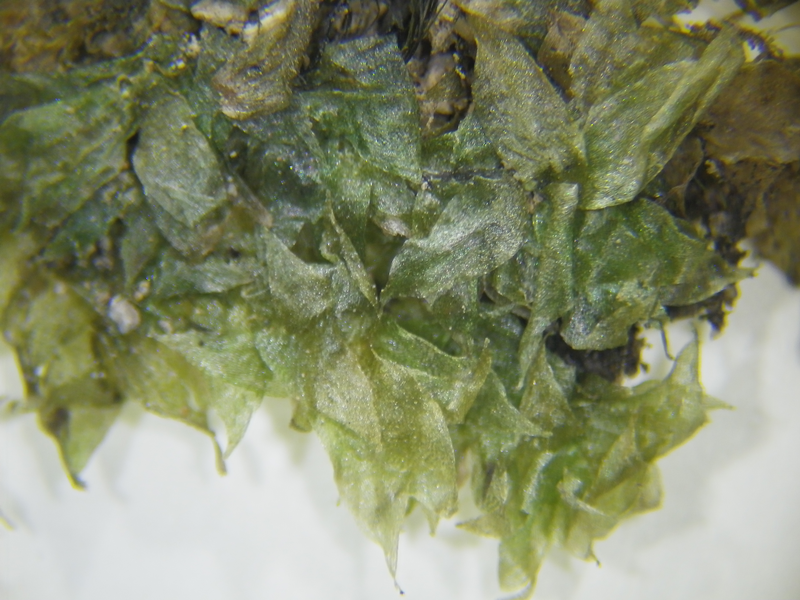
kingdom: Plantae
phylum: Bryophyta
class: Bryopsida
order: Hookeriales
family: Hookeriaceae
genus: Hookeria
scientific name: Hookeria acutifolia
